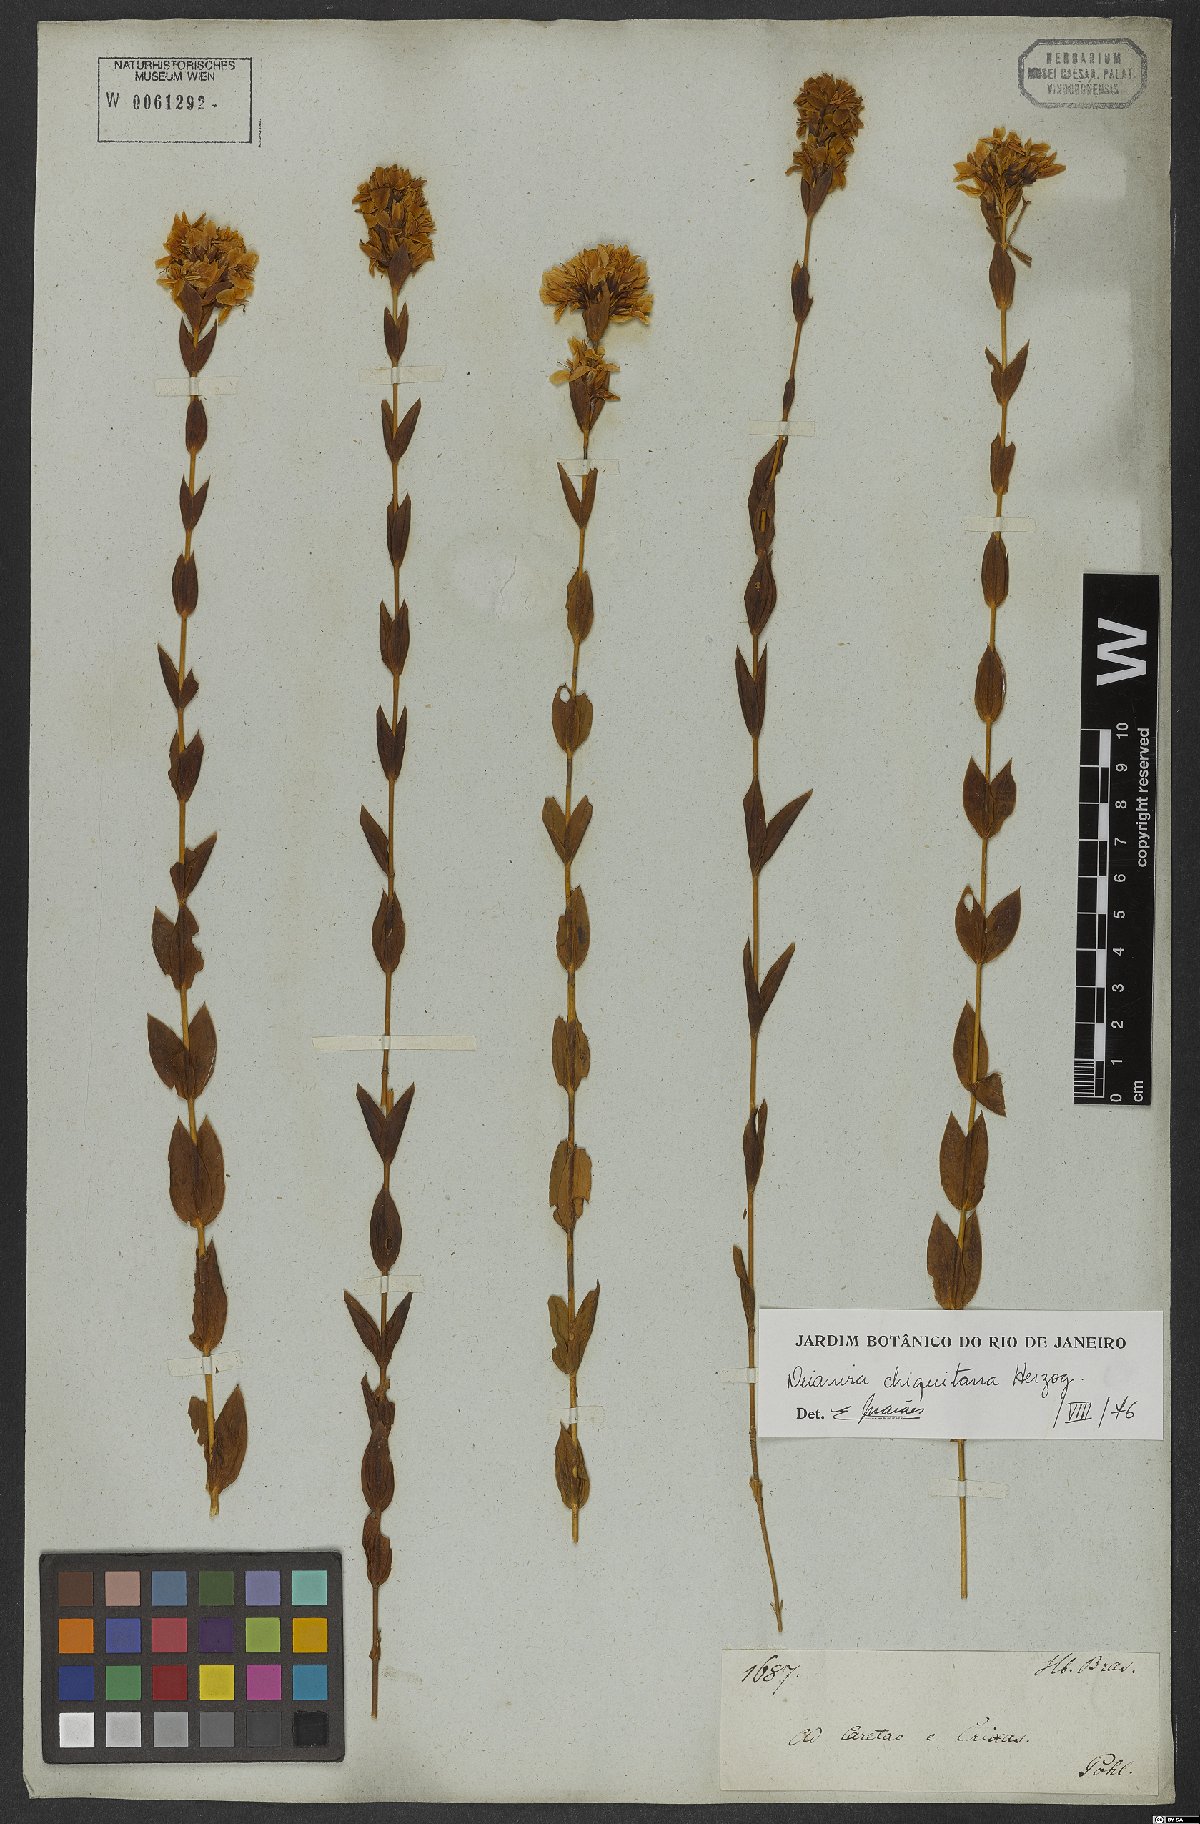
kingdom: Plantae
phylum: Tracheophyta
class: Magnoliopsida
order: Gentianales
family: Gentianaceae
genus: Deianira
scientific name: Deianira chiquitana
